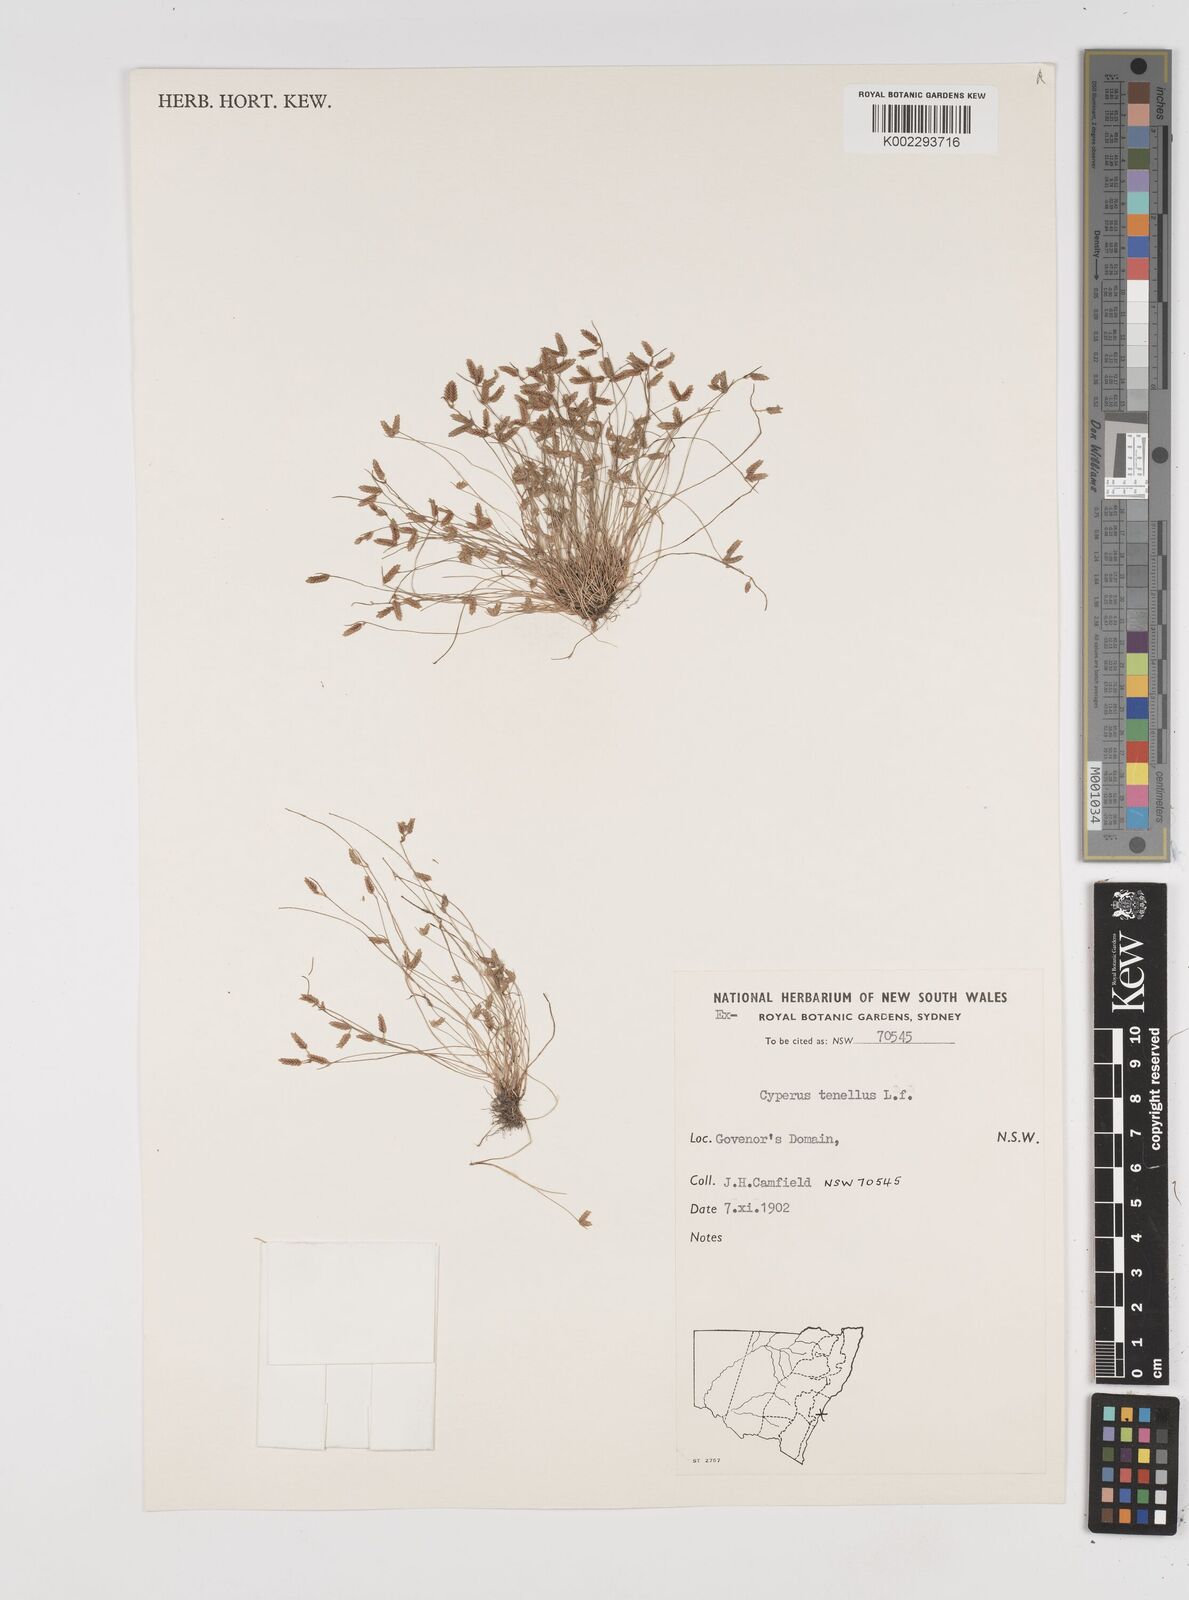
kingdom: Plantae
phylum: Tracheophyta
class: Liliopsida
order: Poales
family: Cyperaceae
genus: Isolepis
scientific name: Isolepis levynsiana
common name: Sedge
